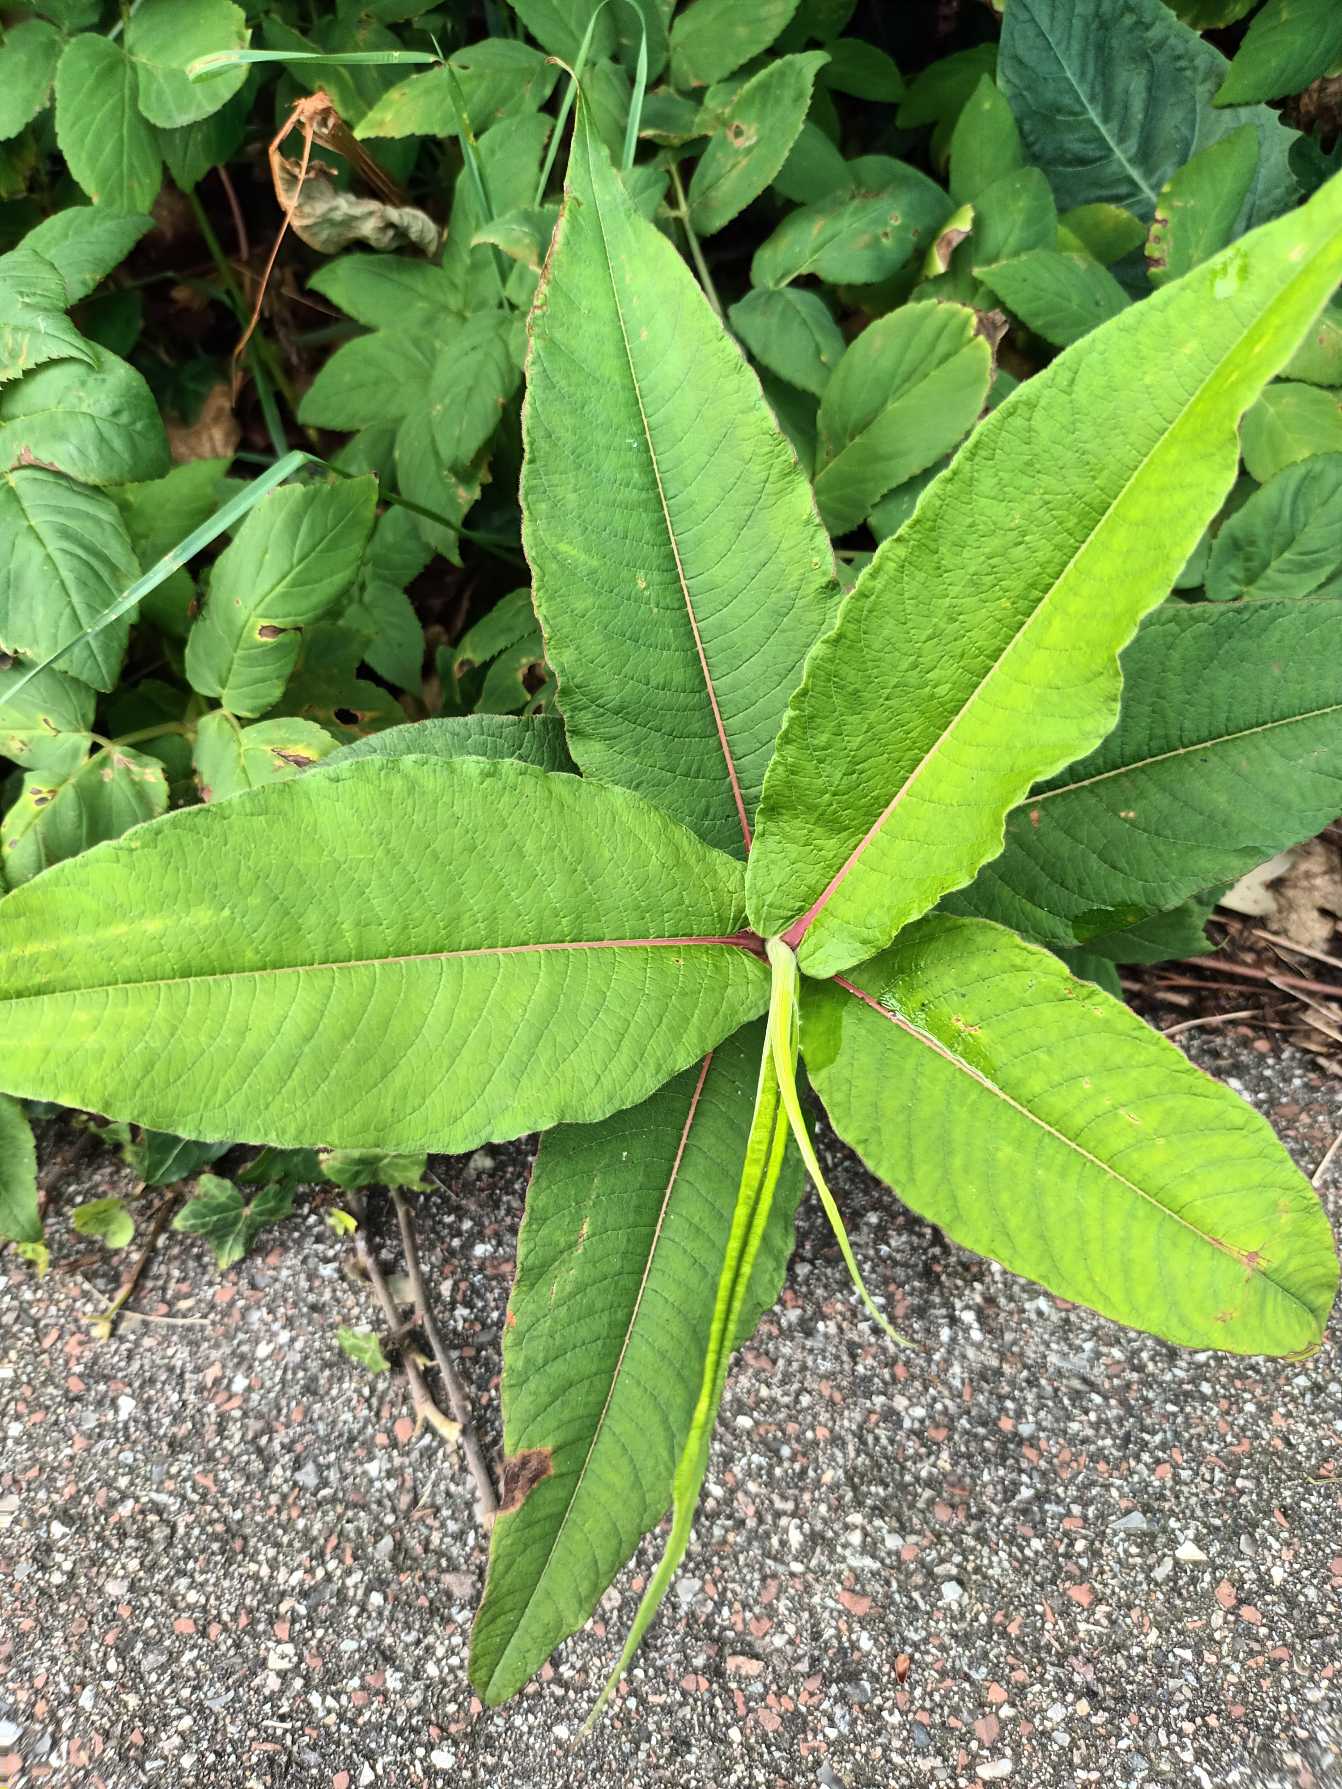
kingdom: Plantae
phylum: Tracheophyta
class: Magnoliopsida
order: Caryophyllales
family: Polygonaceae
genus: Koenigia
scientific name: Koenigia polystachya
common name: Syren-pileurt
